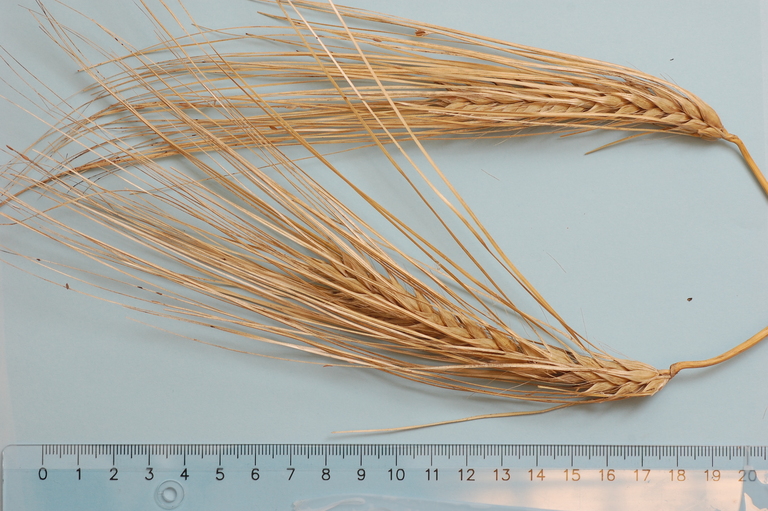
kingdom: Plantae
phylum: Tracheophyta
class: Liliopsida
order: Poales
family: Poaceae
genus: Hordeum
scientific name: Hordeum vulgare
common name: Common barley
